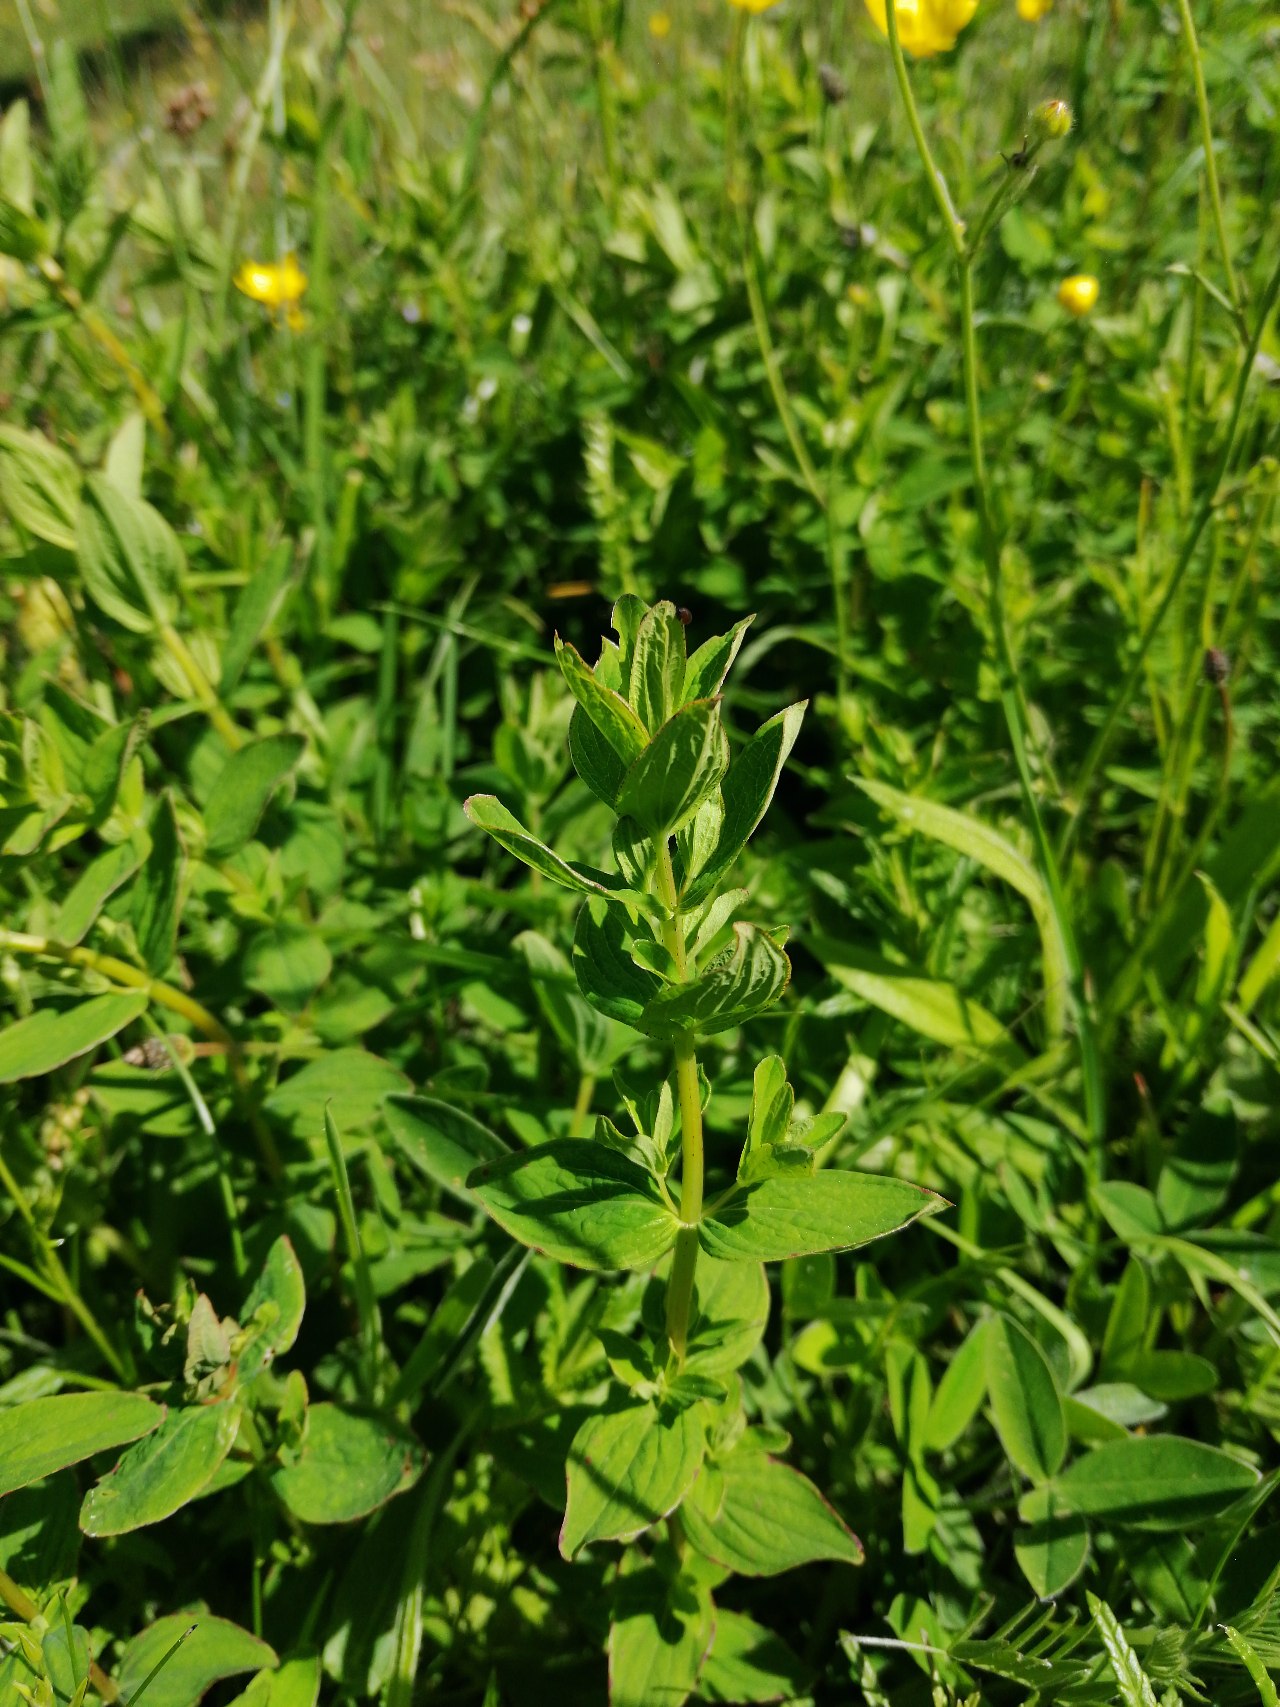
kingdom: Plantae
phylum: Tracheophyta
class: Magnoliopsida
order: Malpighiales
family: Hypericaceae
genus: Hypericum
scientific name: Hypericum maculatum
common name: Kantet perikon
